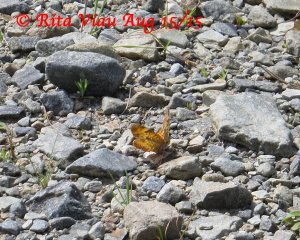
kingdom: Animalia
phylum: Arthropoda
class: Insecta
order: Lepidoptera
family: Nymphalidae
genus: Phyciodes
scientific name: Phyciodes tharos
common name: Northern Crescent
